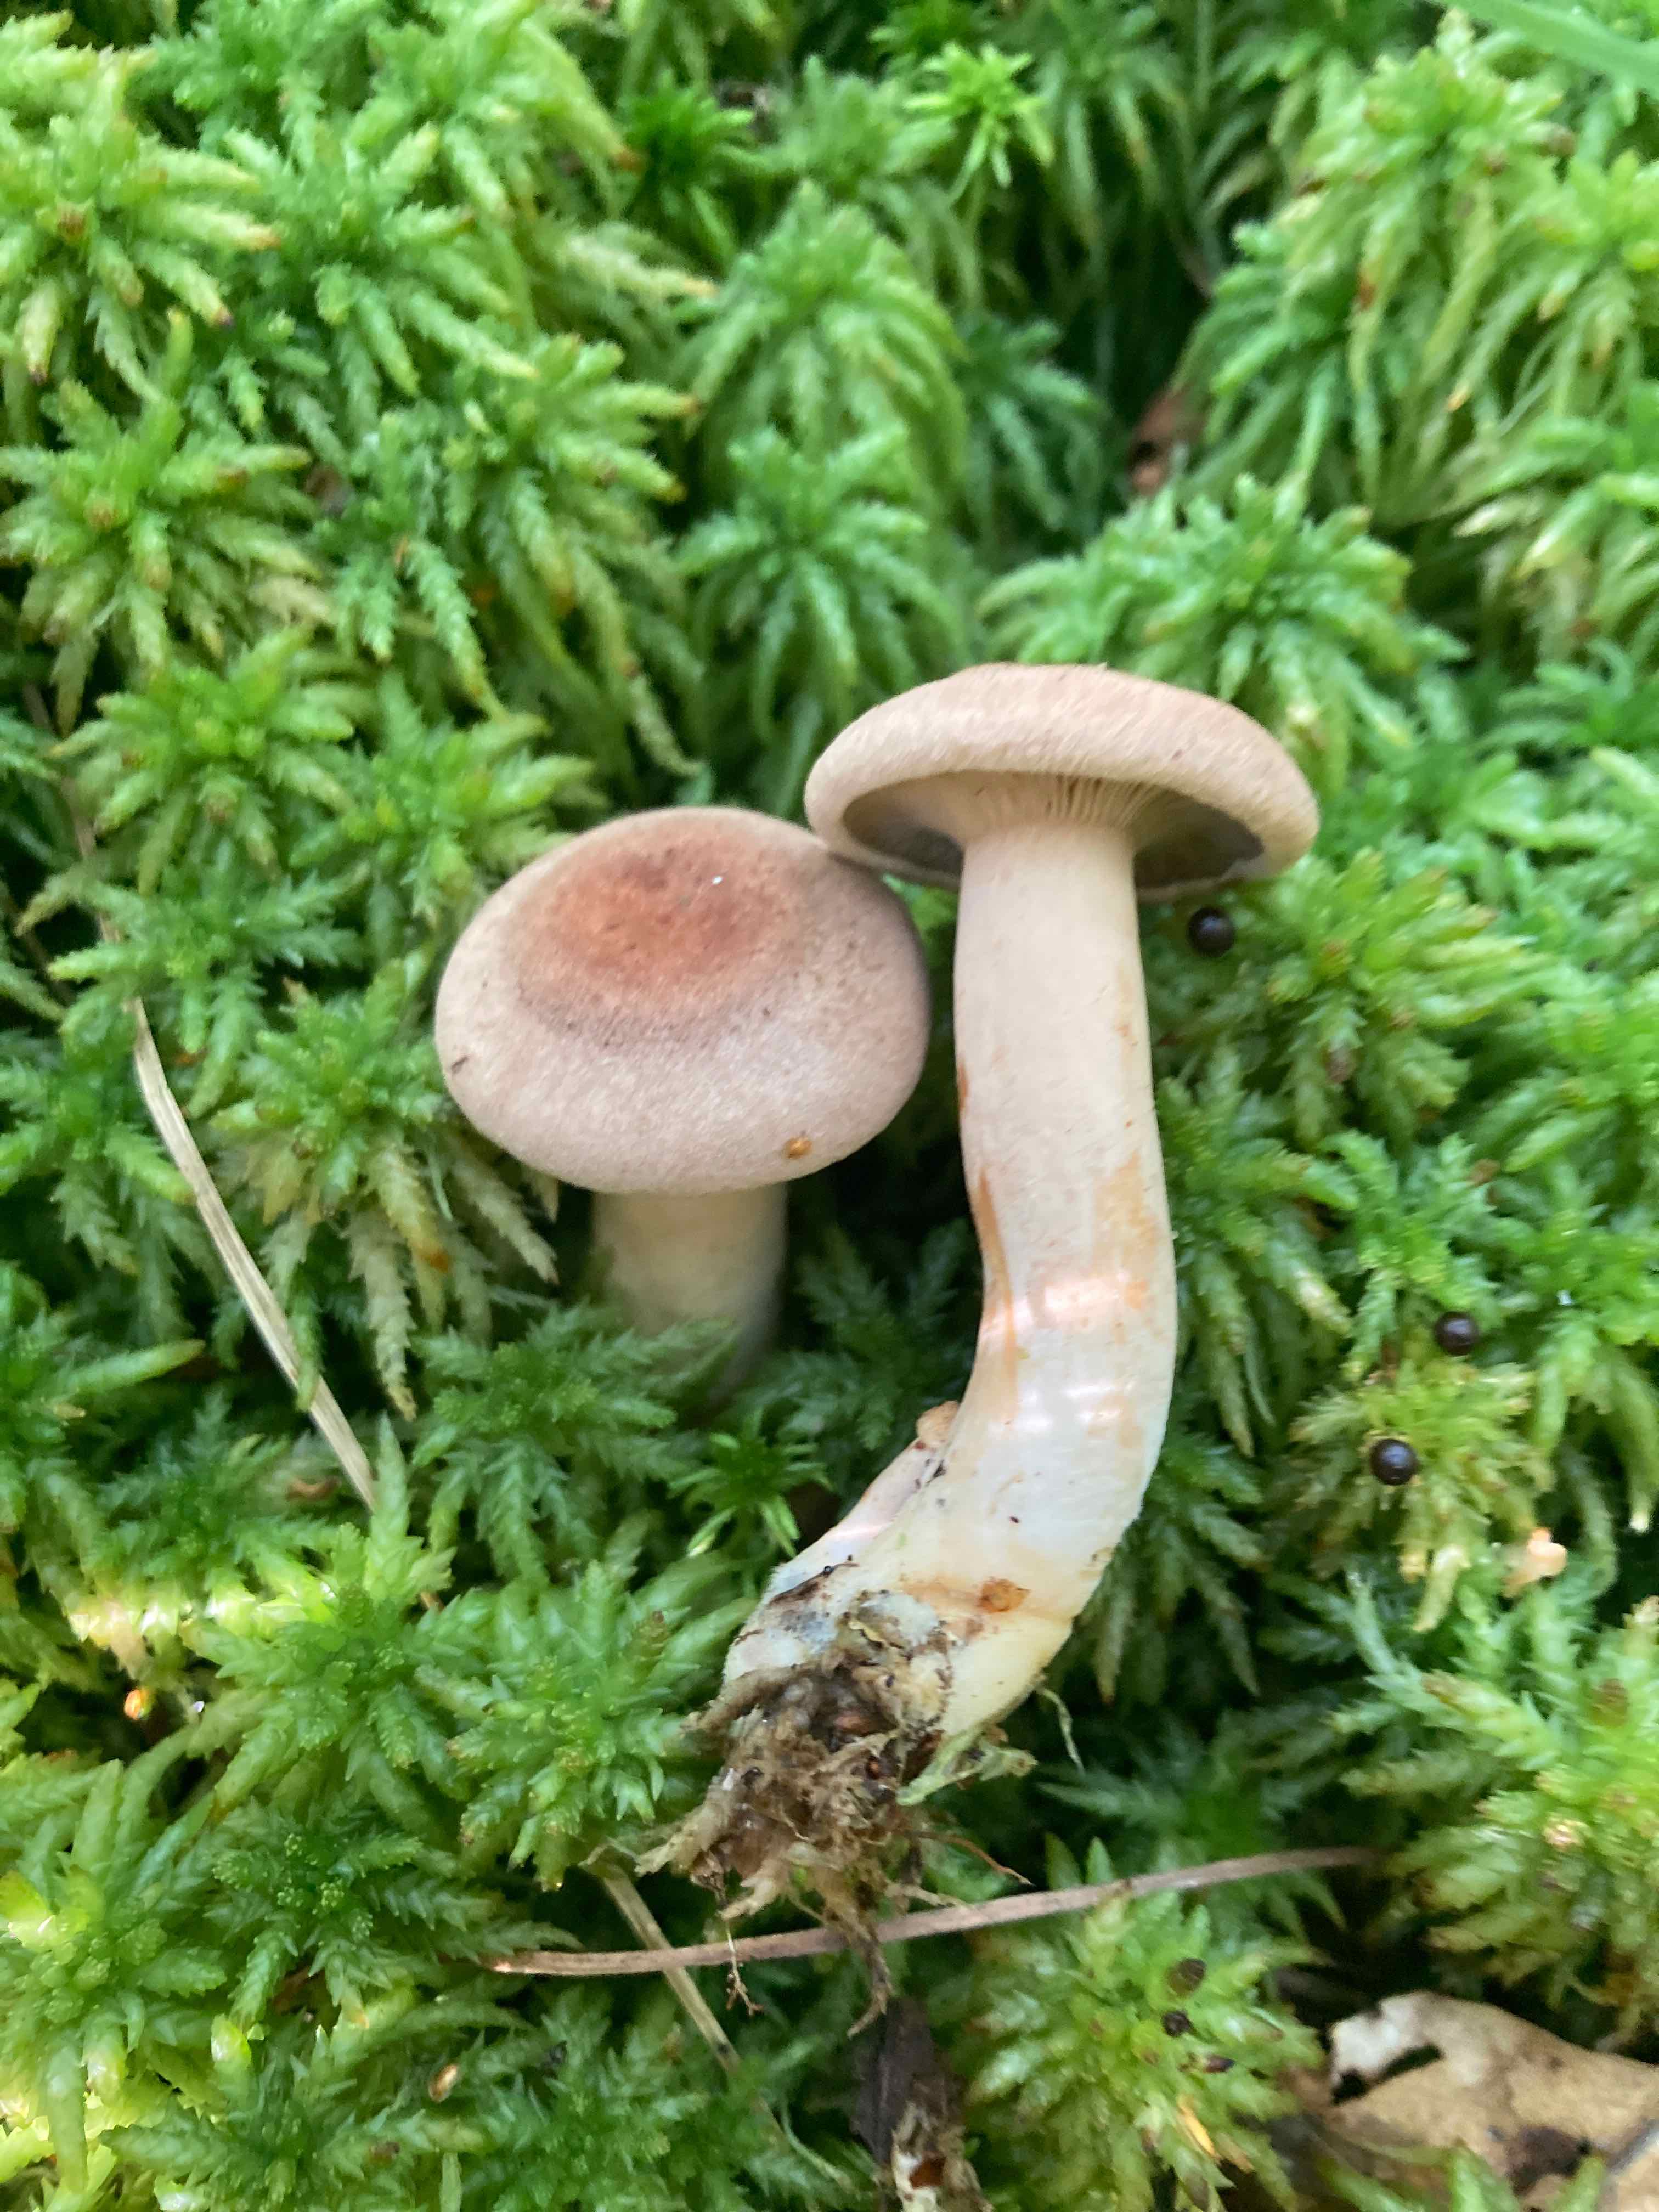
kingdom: Fungi
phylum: Basidiomycota
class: Agaricomycetes
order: Russulales
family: Russulaceae
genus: Lactarius
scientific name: Lactarius helvus
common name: mose-mælkehat
